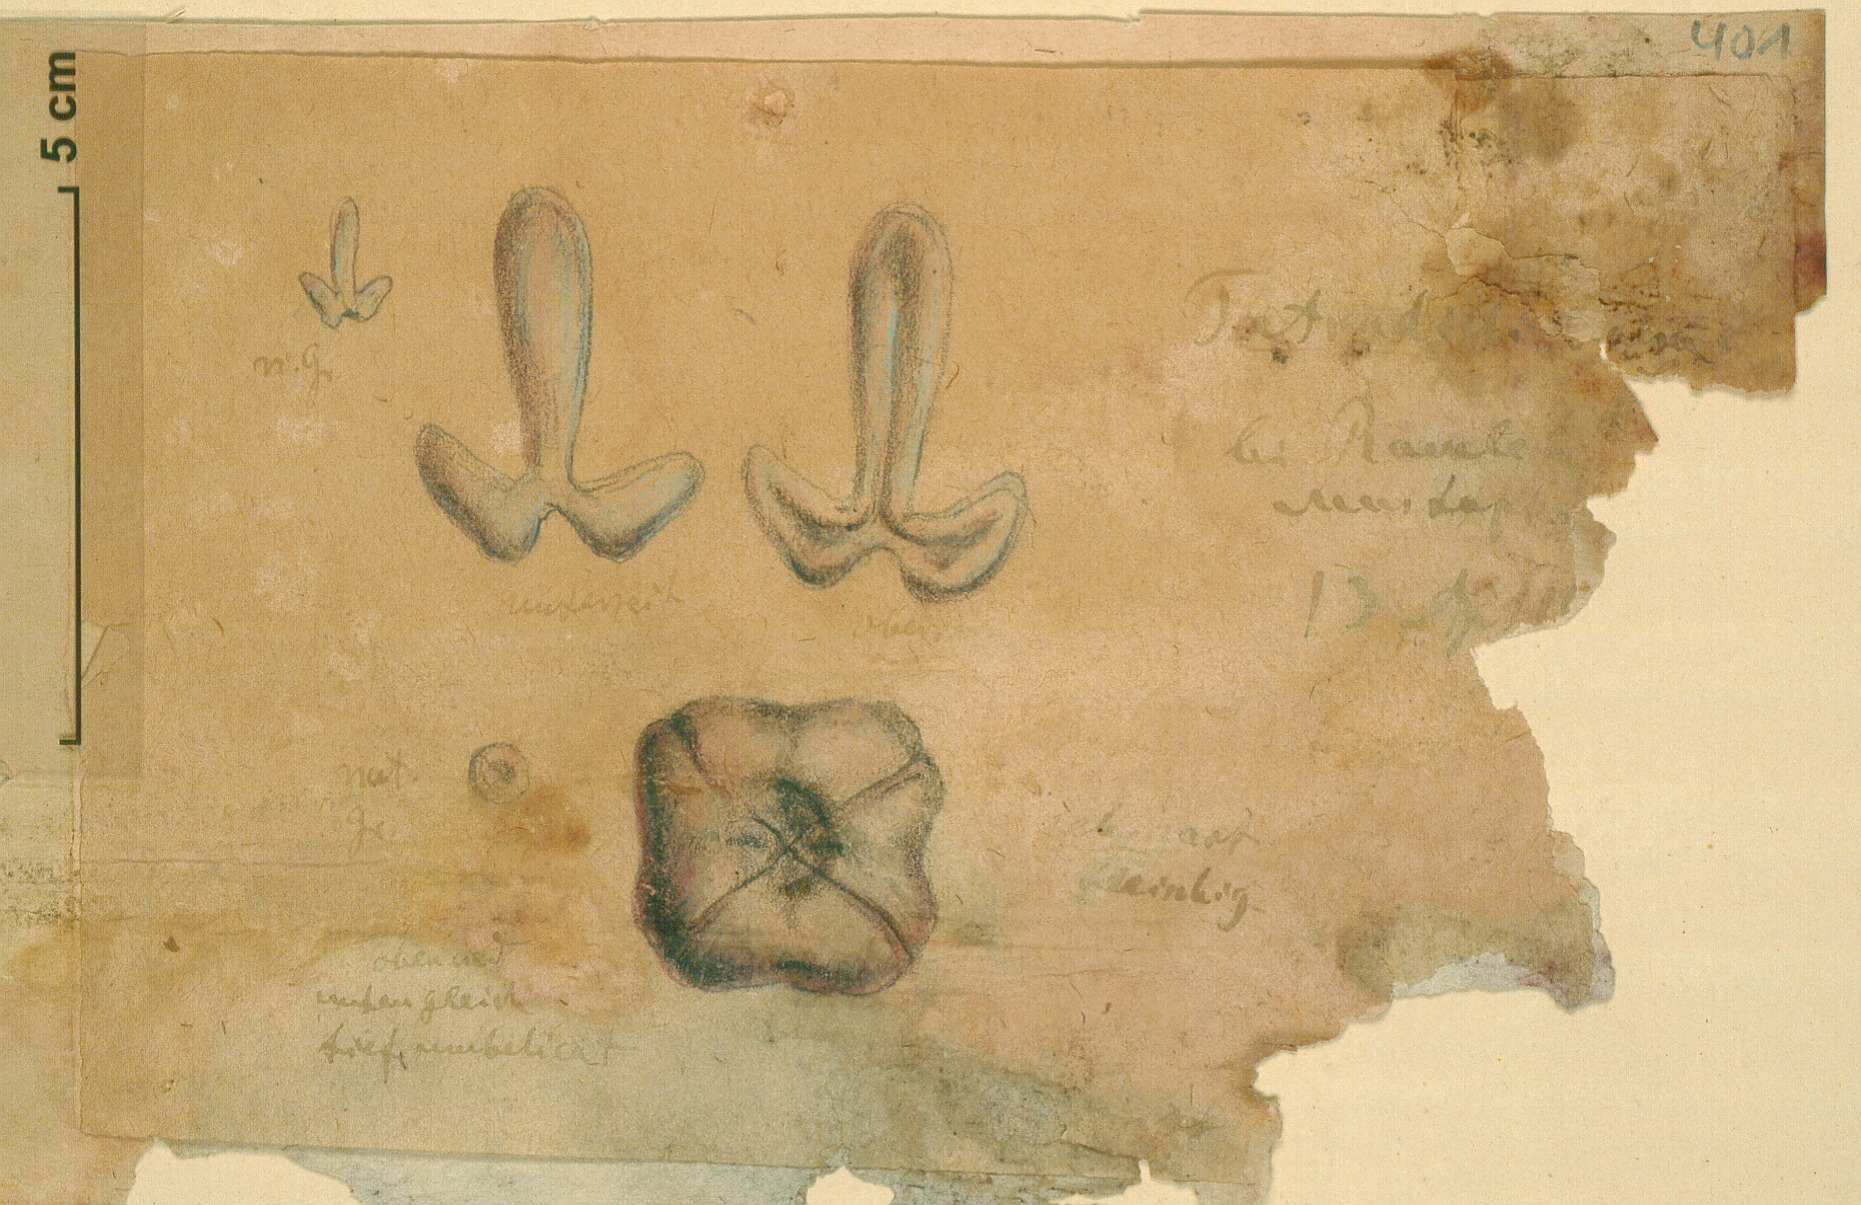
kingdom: Plantae
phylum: Tracheophyta
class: Magnoliopsida
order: Sapindales
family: Tetradiclidaceae
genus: Tetradiclis
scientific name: Tetradiclis tenella
